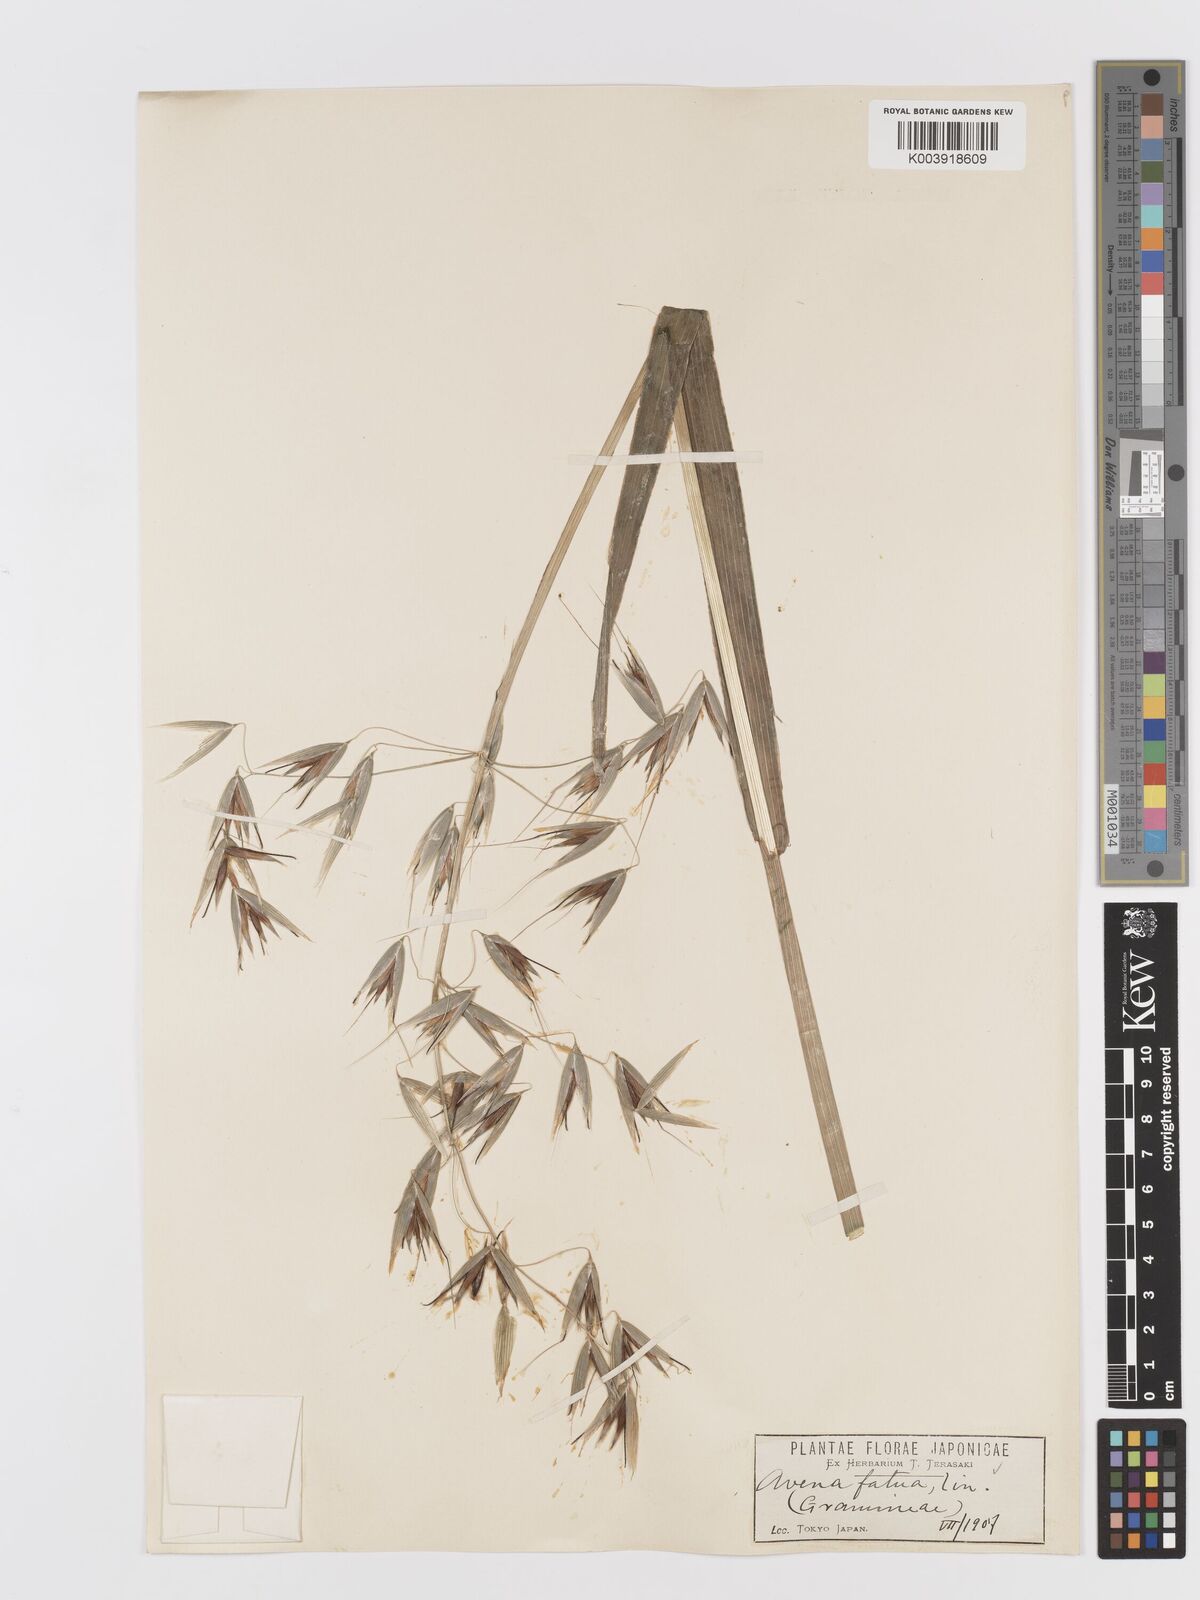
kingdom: Plantae
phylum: Tracheophyta
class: Liliopsida
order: Poales
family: Poaceae
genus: Avena
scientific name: Avena fatua
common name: Wild oat
